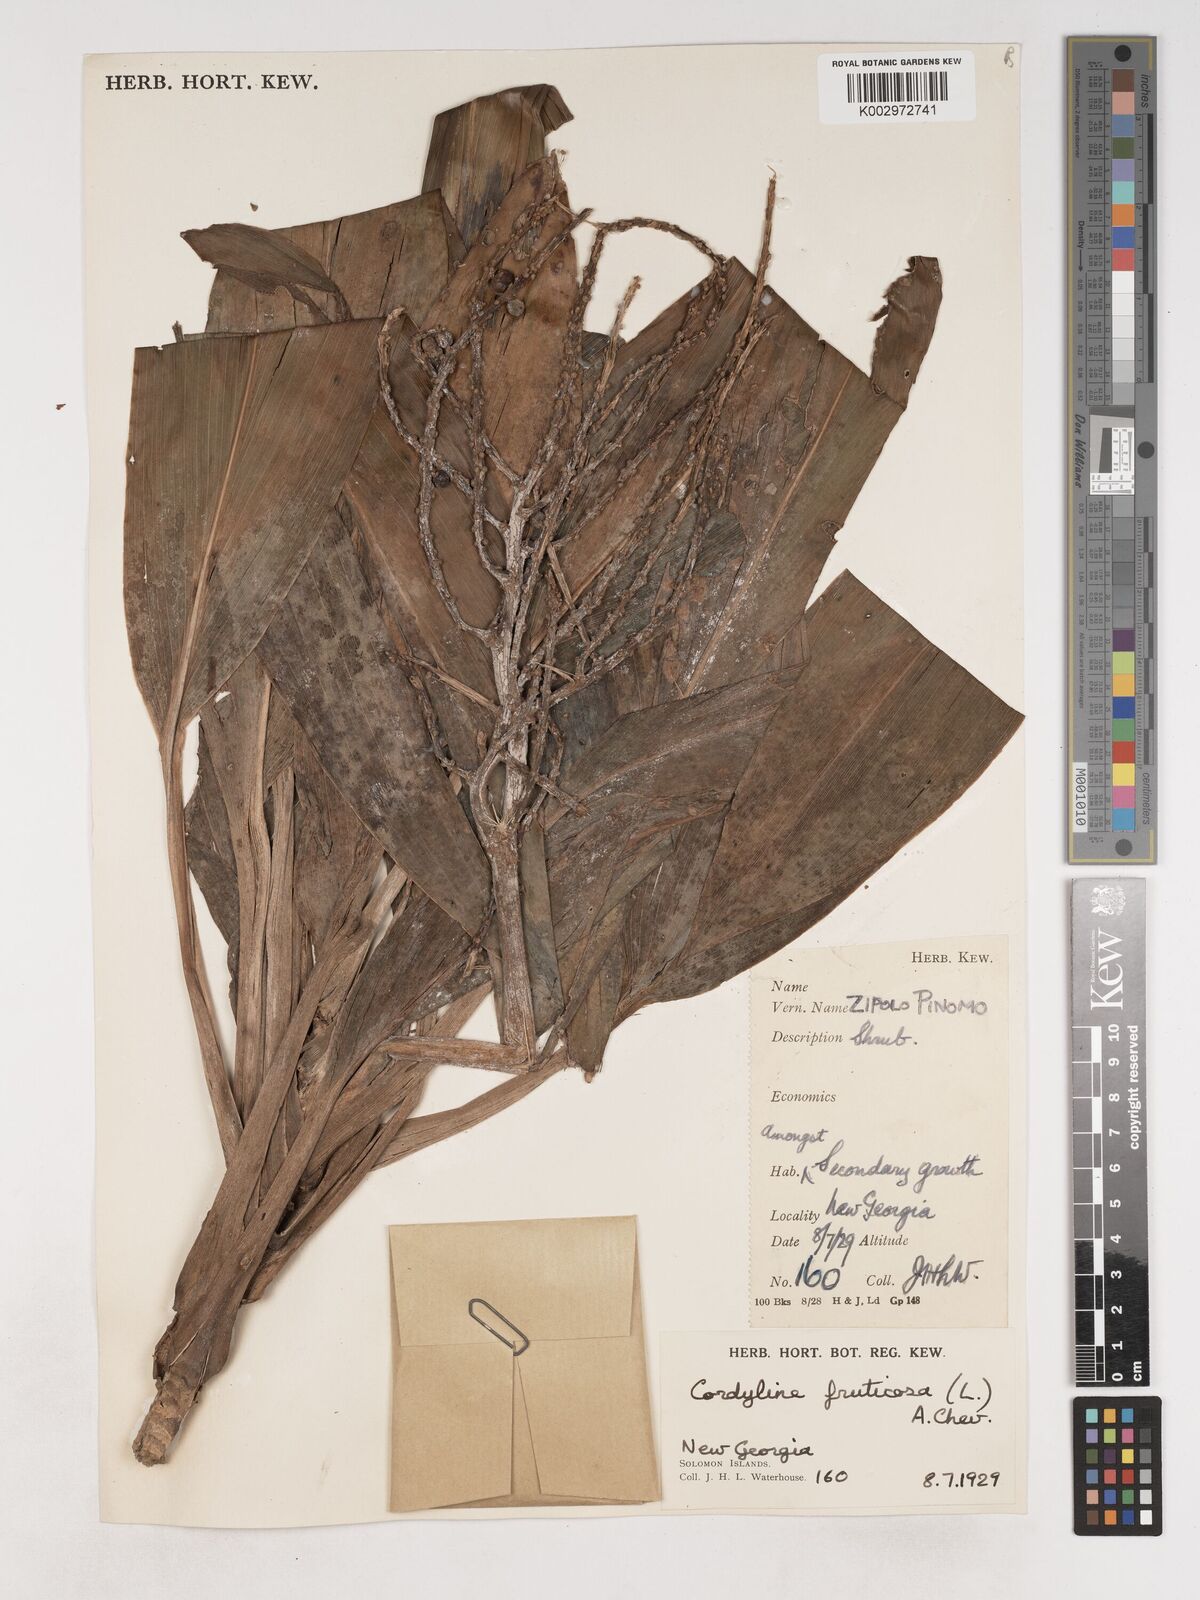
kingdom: Plantae
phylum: Tracheophyta
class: Liliopsida
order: Asparagales
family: Asparagaceae
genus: Cordyline
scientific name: Cordyline fruticosa
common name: Good-luck-plant
